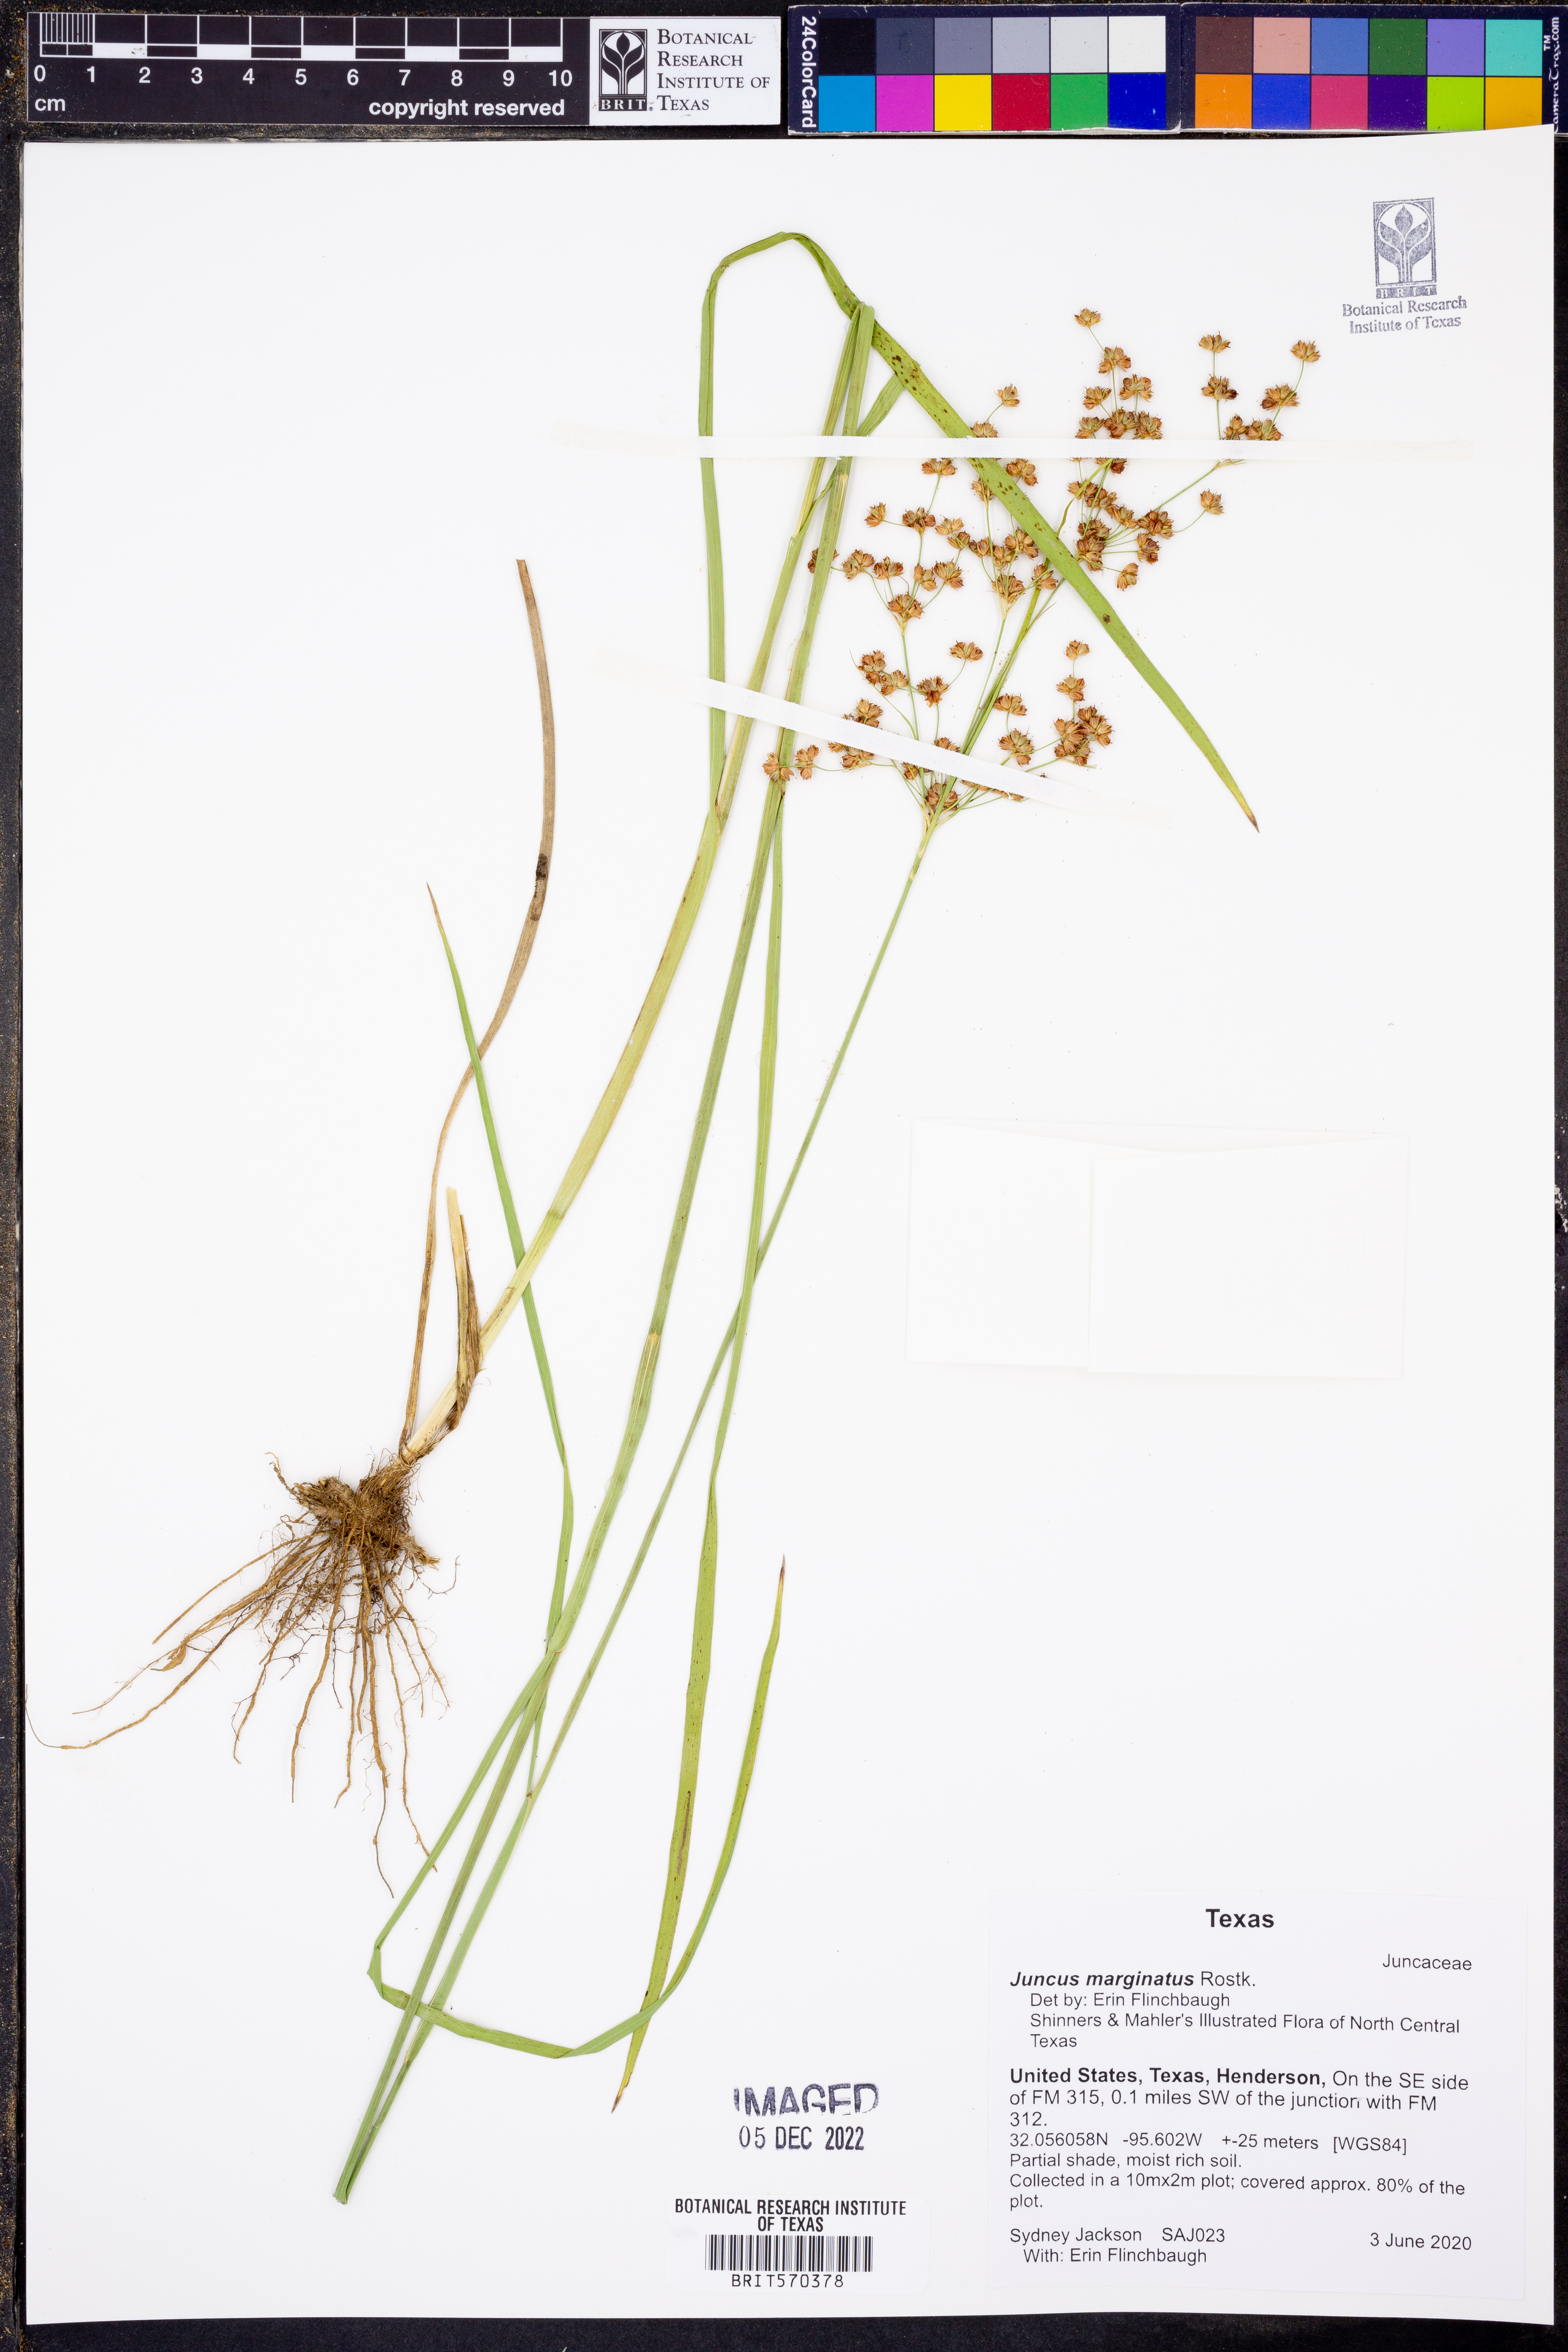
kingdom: Plantae
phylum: Tracheophyta
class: Liliopsida
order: Poales
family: Juncaceae
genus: Juncus
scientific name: Juncus marginatus
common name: Grass-leaf rush
